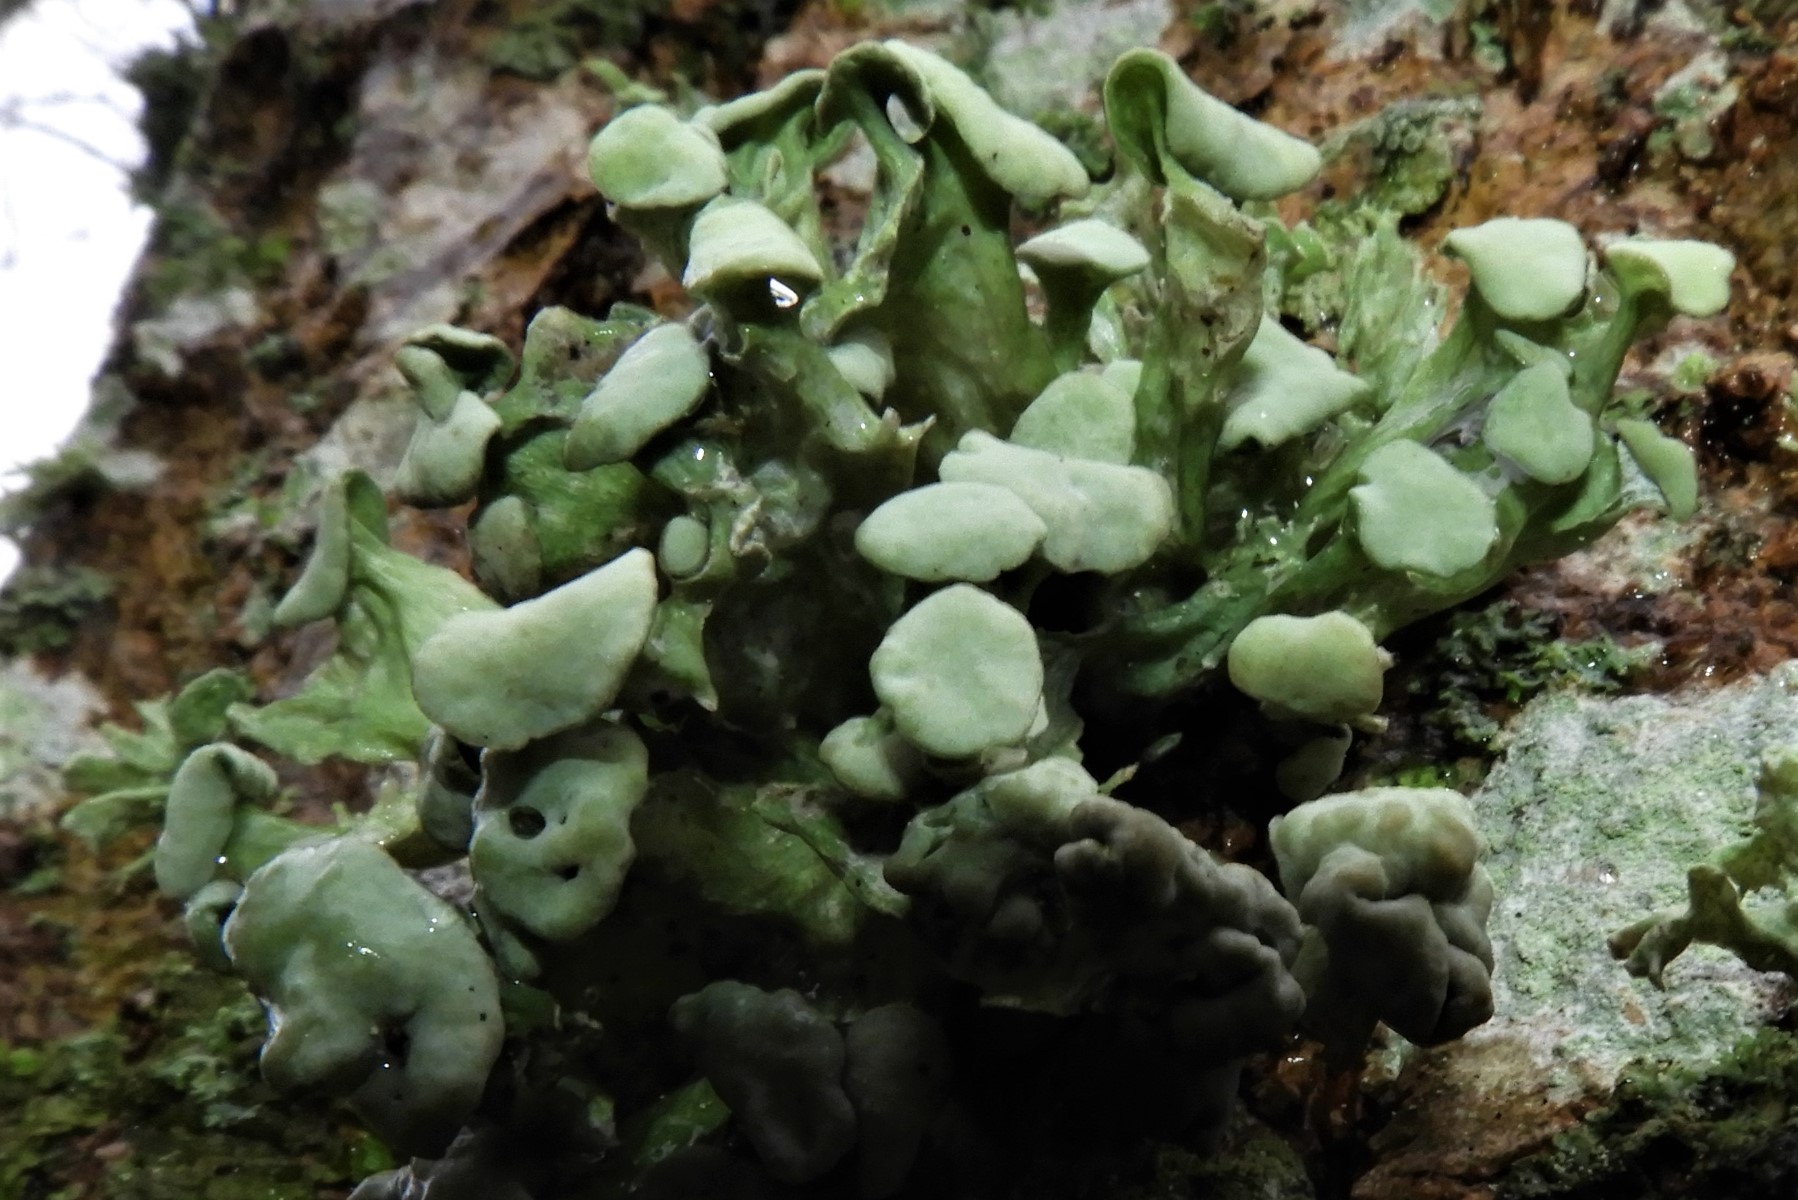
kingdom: Fungi
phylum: Ascomycota
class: Lecanoromycetes
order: Lecanorales
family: Ramalinaceae
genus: Ramalina
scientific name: Ramalina fastigiata
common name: tue-grenlav
